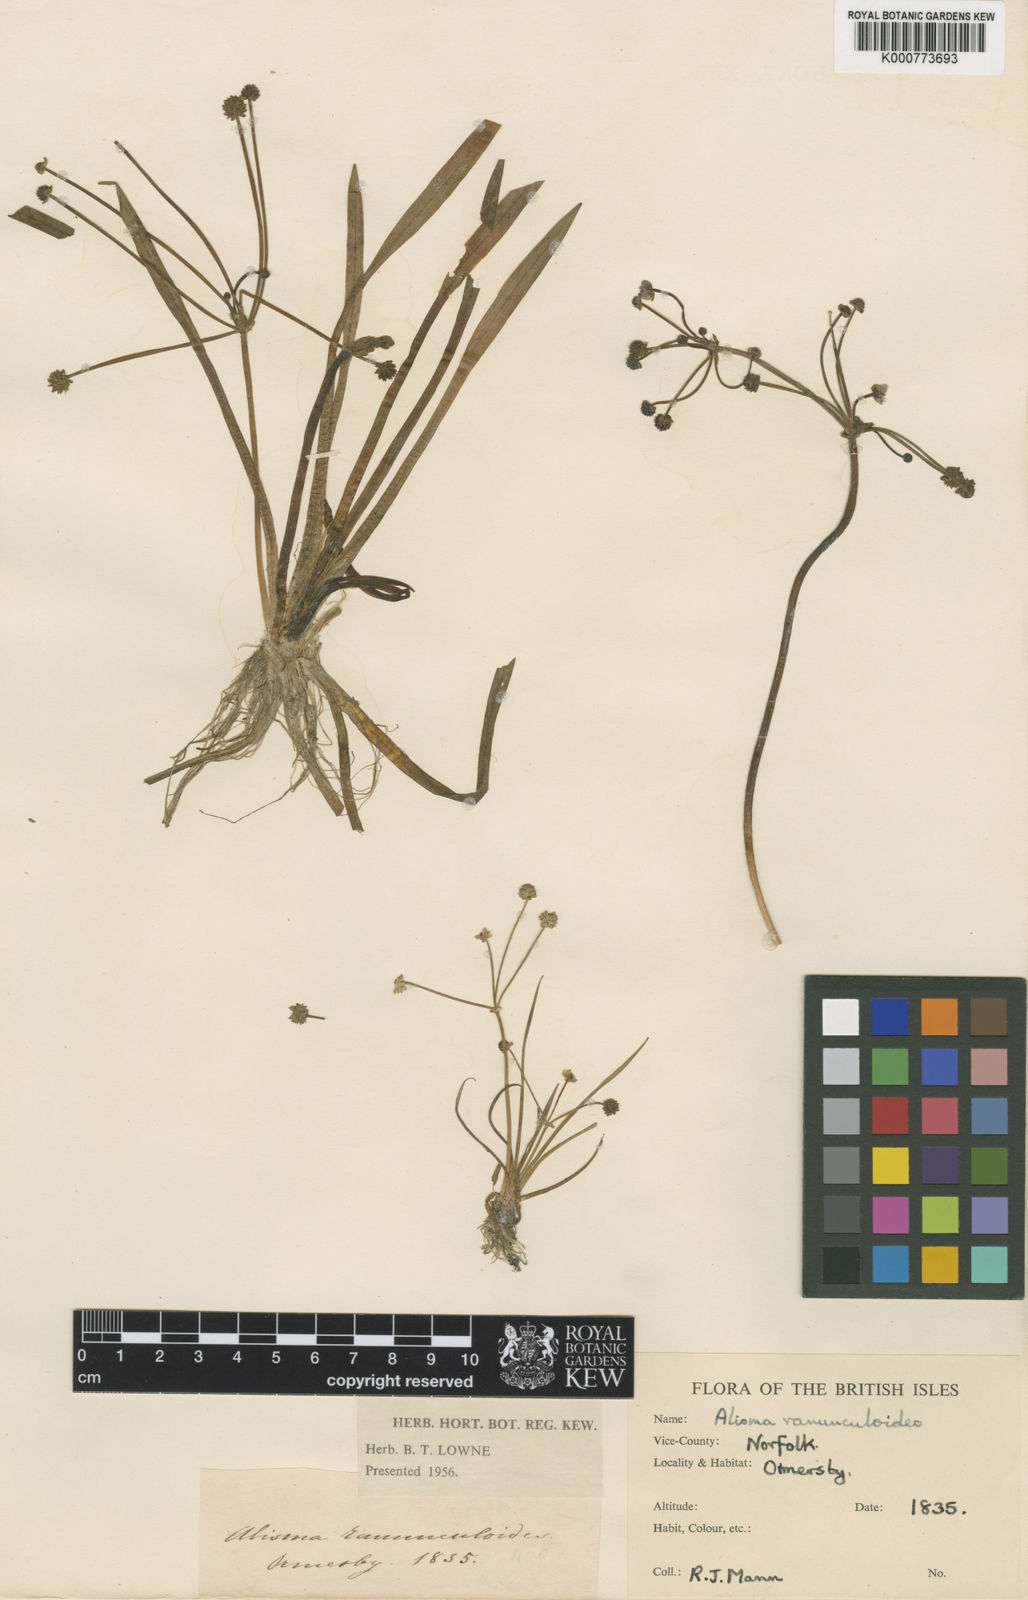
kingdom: Plantae
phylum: Tracheophyta
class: Liliopsida
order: Alismatales
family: Alismataceae
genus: Baldellia
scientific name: Baldellia ranunculoides
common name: Lesser water-plantain
